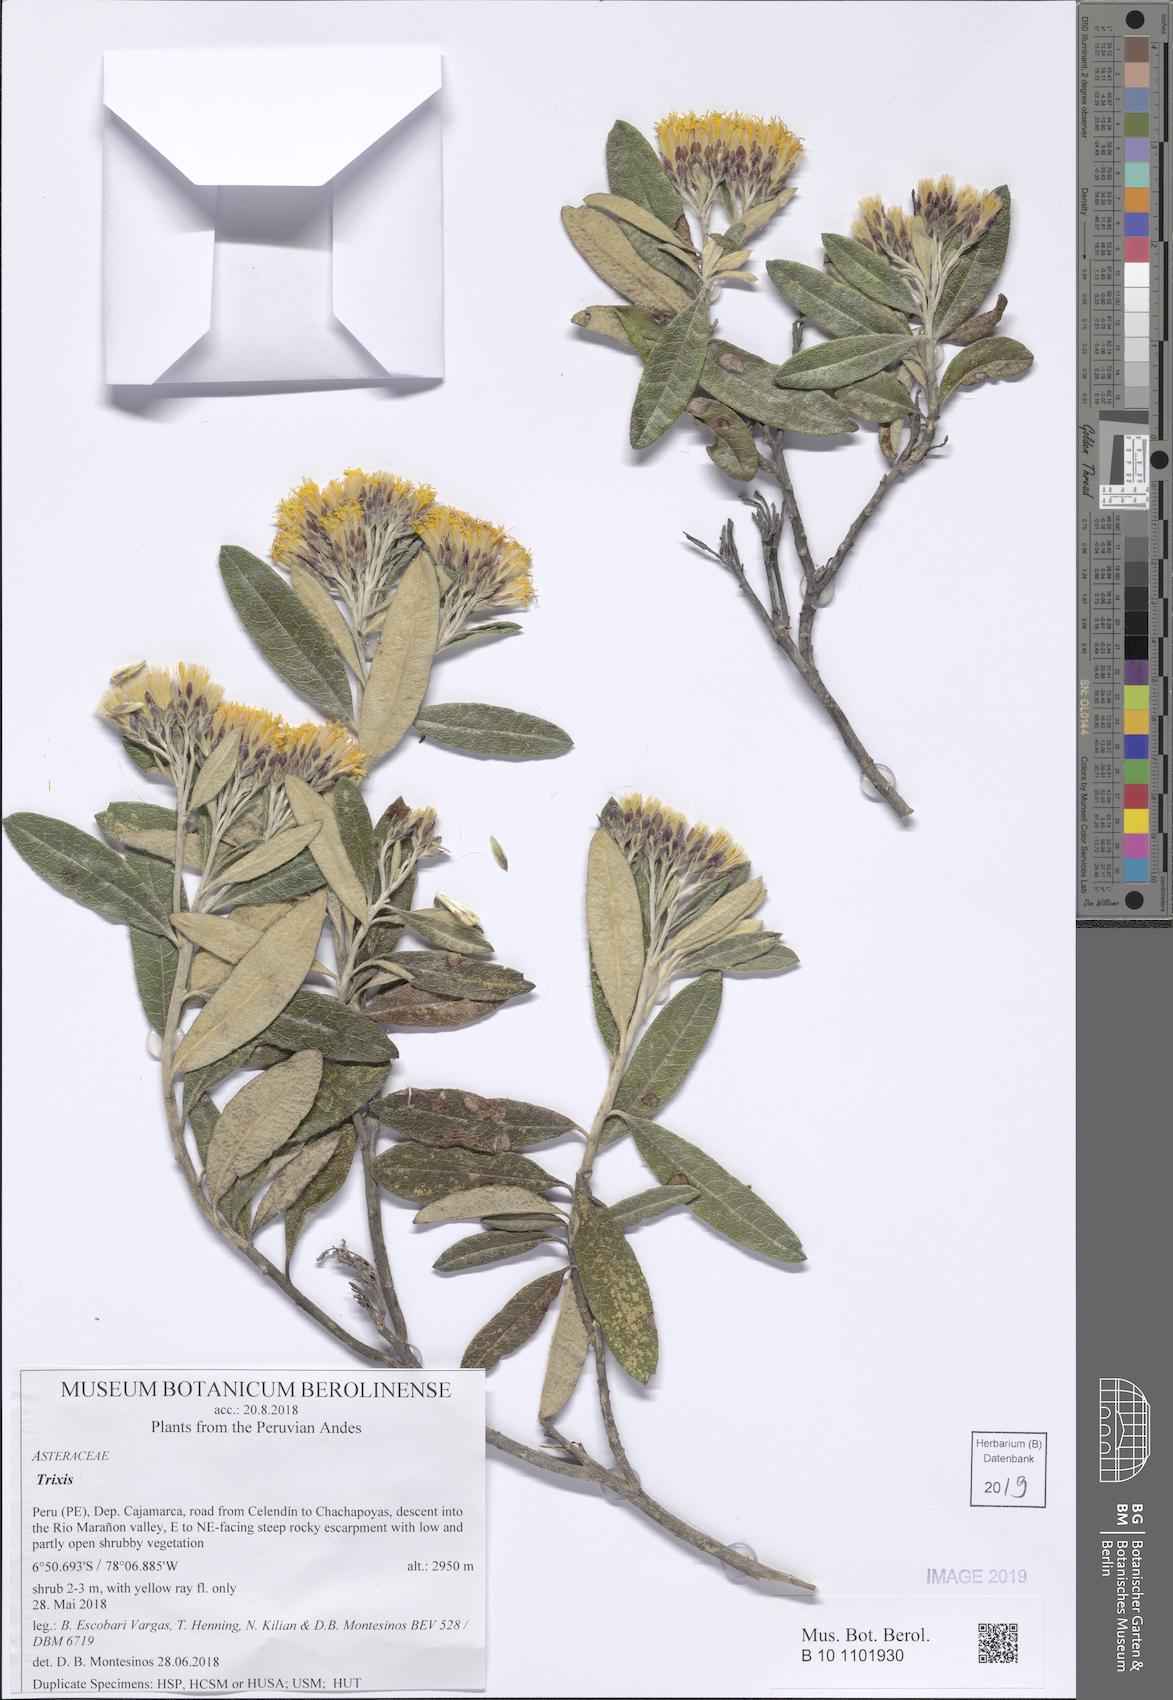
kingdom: Plantae
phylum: Tracheophyta
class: Magnoliopsida
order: Asterales
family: Asteraceae
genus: Trixis
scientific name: Trixis
